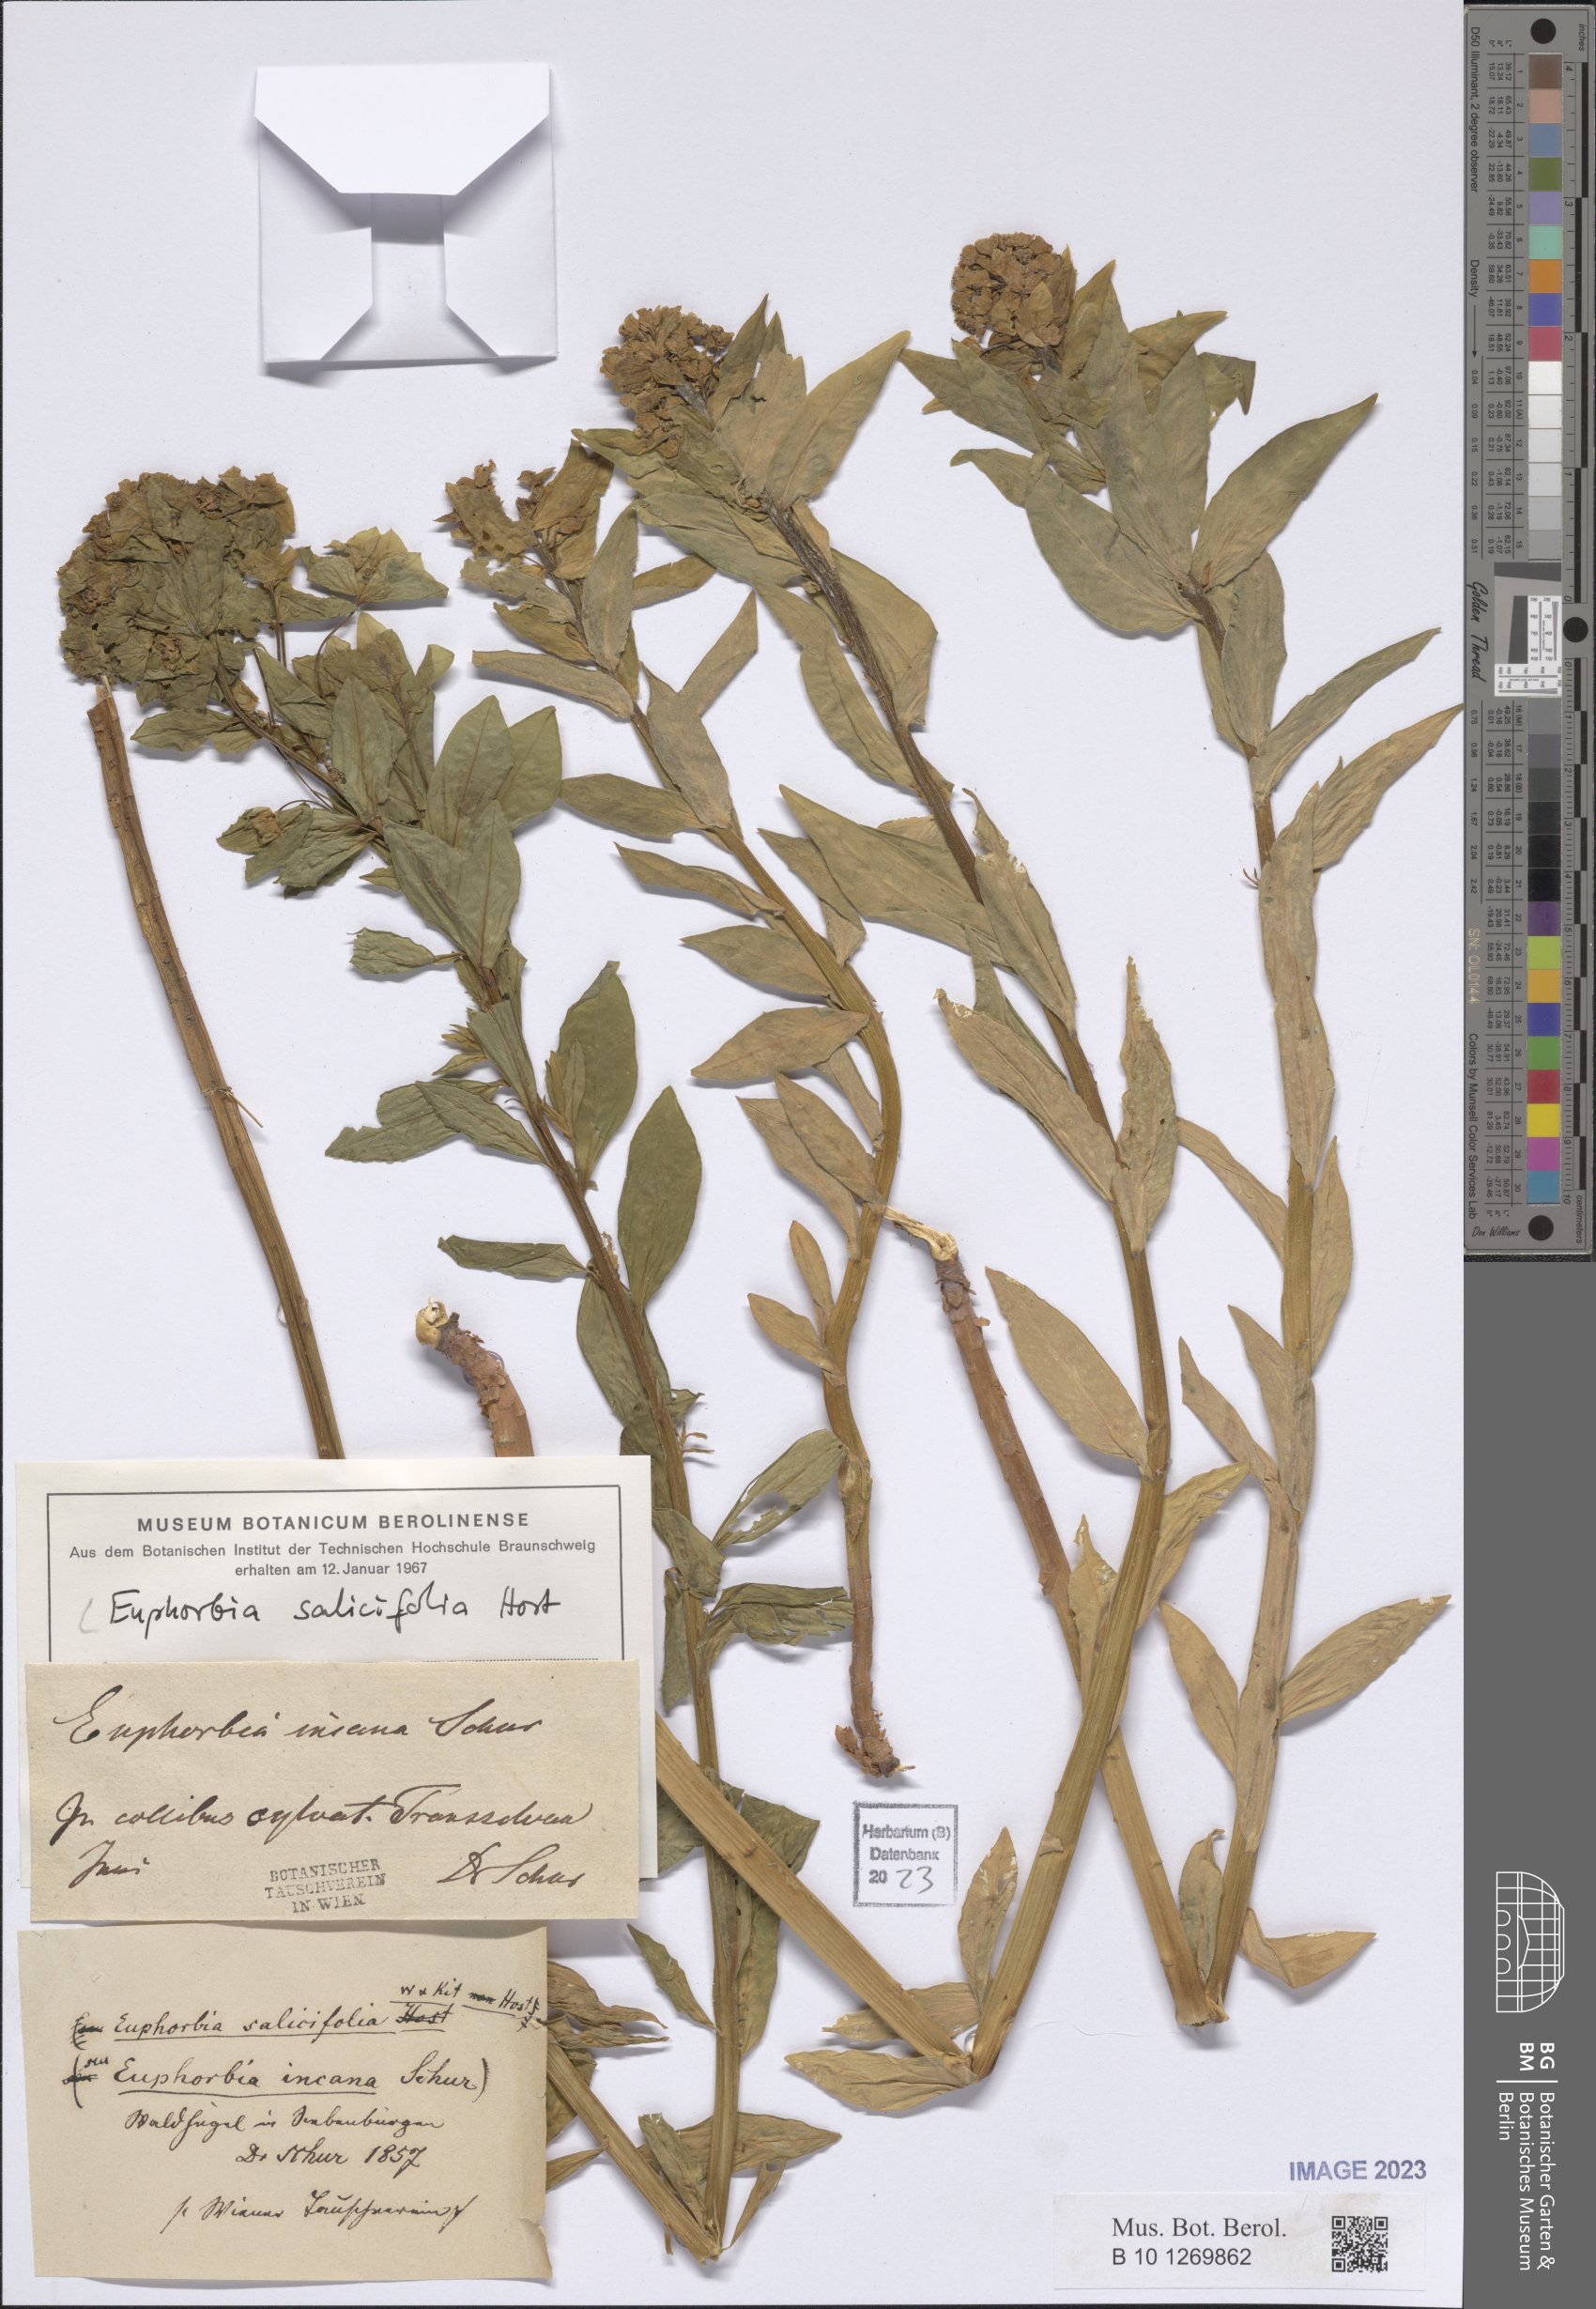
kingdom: Plantae
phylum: Tracheophyta
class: Magnoliopsida
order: Malpighiales
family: Euphorbiaceae
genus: Euphorbia
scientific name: Euphorbia salicifolia
